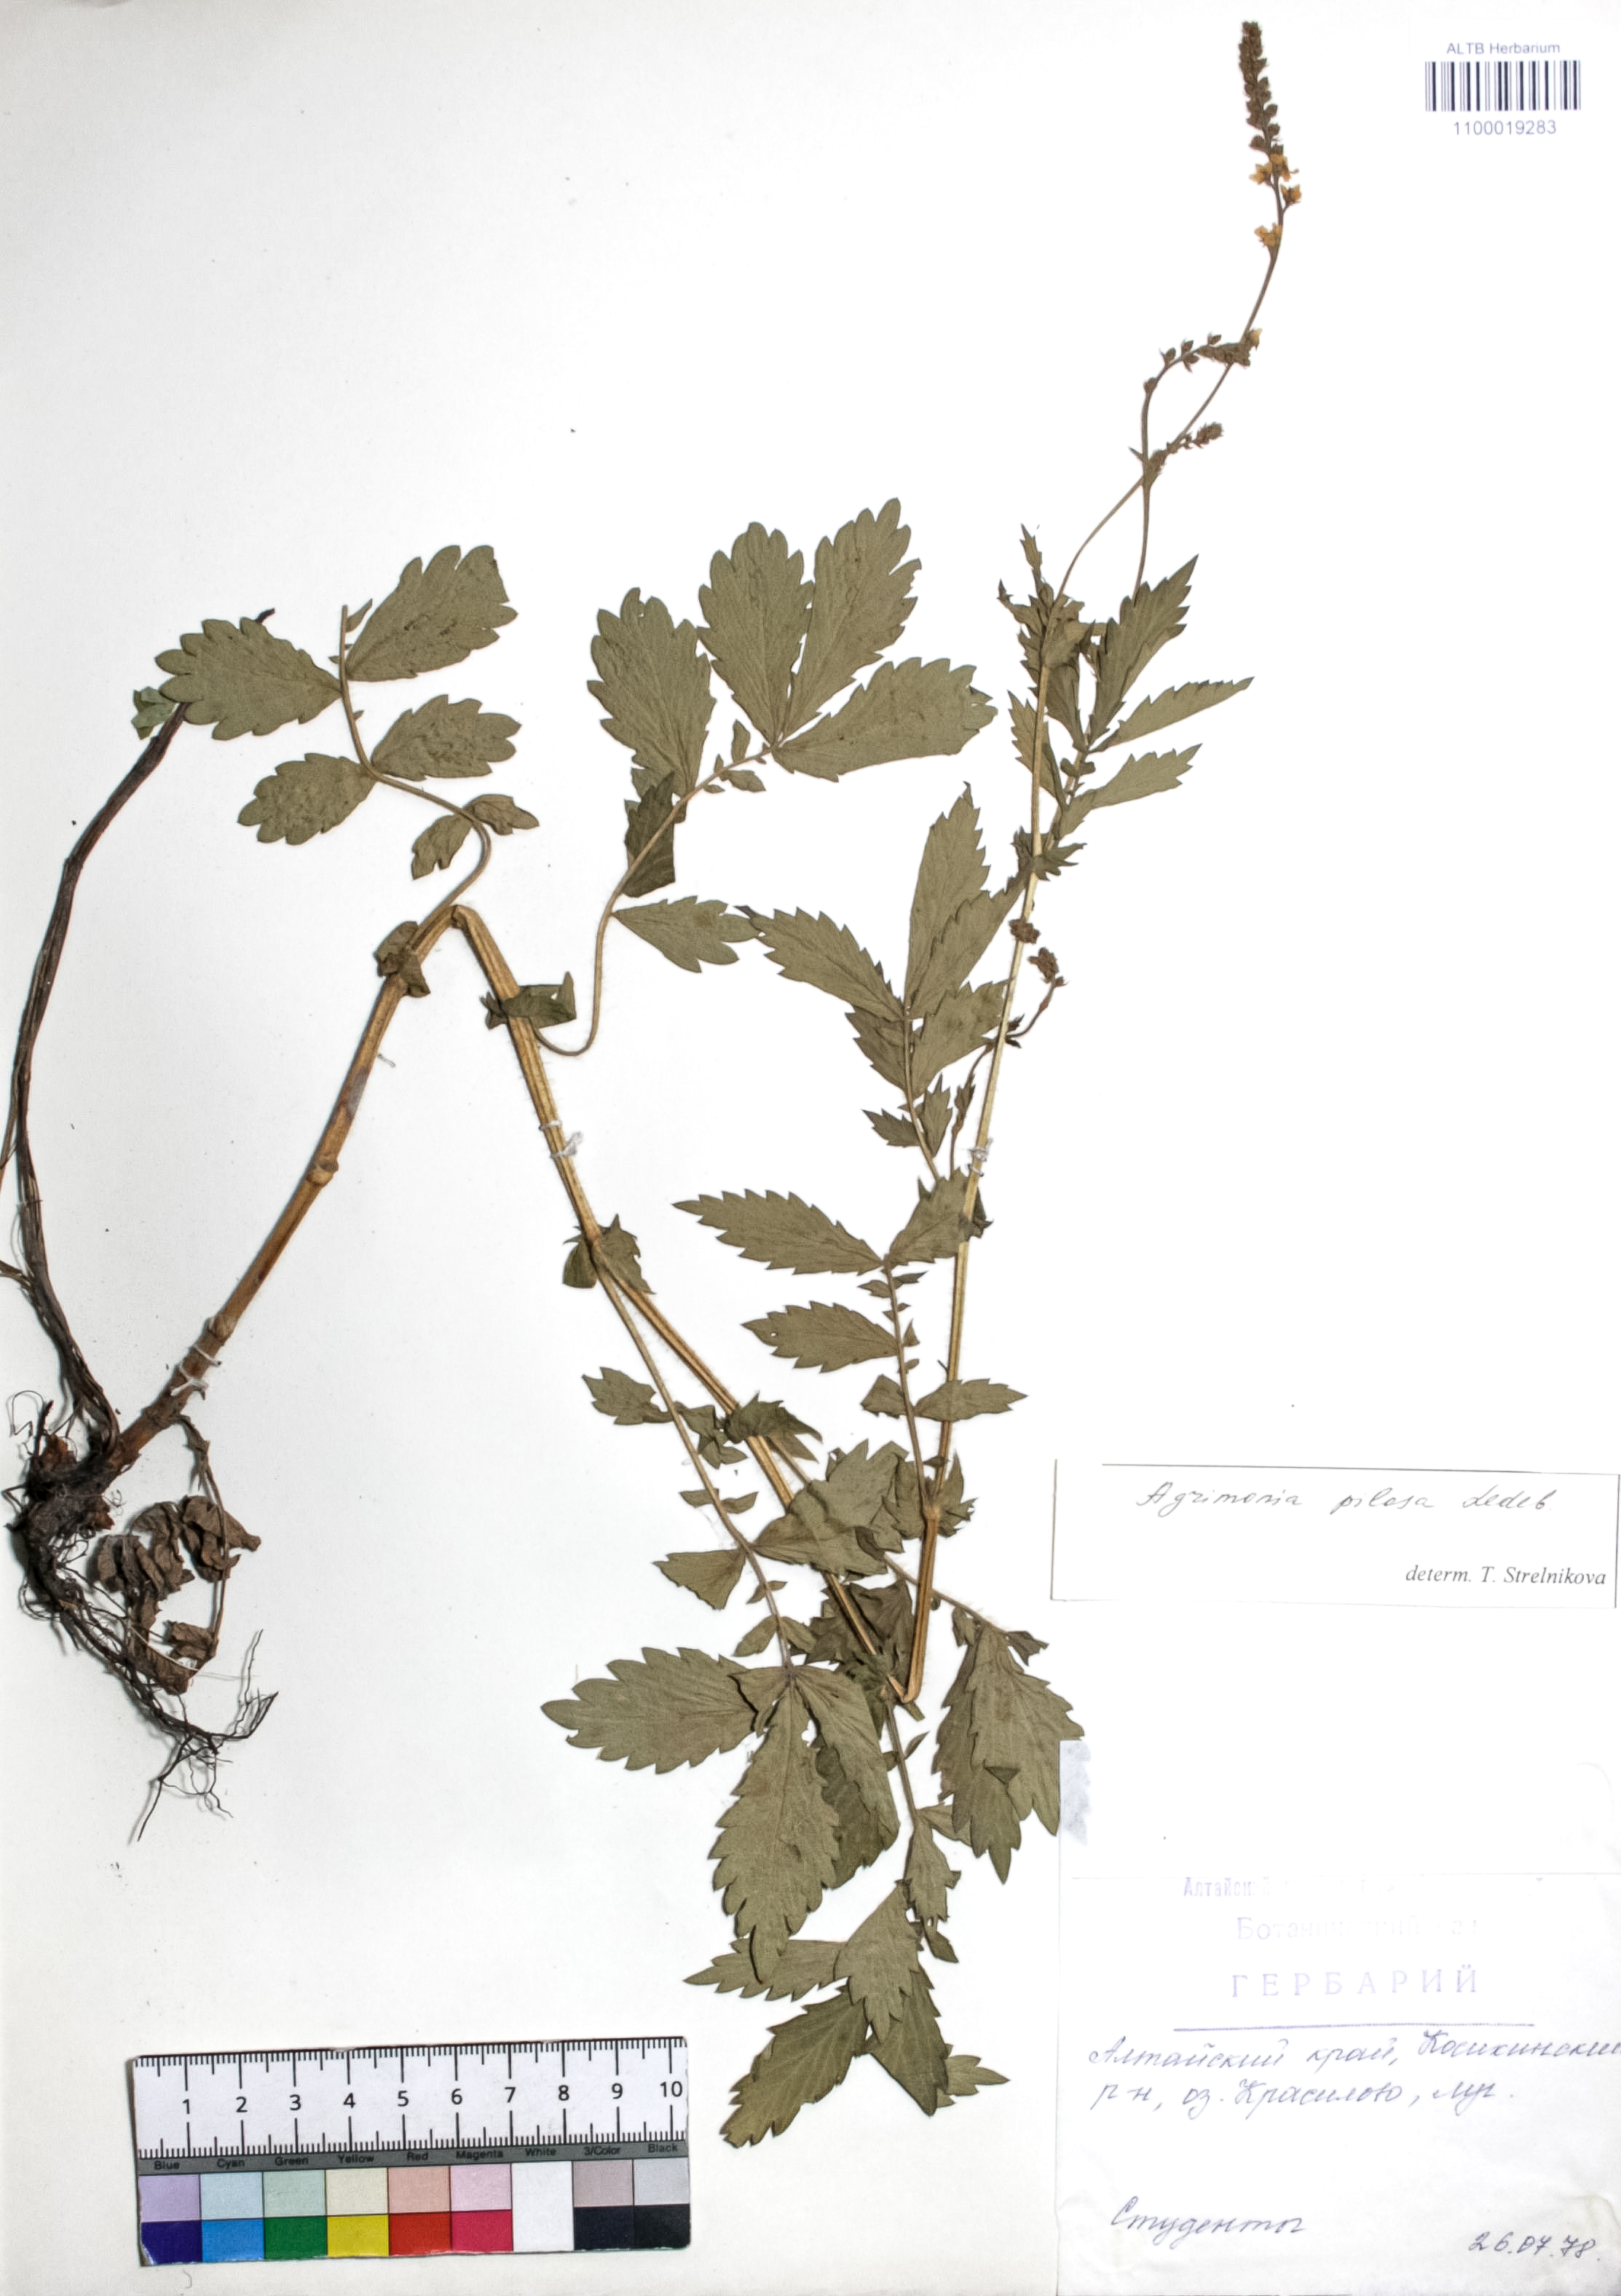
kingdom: Plantae
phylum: Tracheophyta
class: Magnoliopsida
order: Rosales
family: Rosaceae
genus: Agrimonia
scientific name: Agrimonia pilosa
